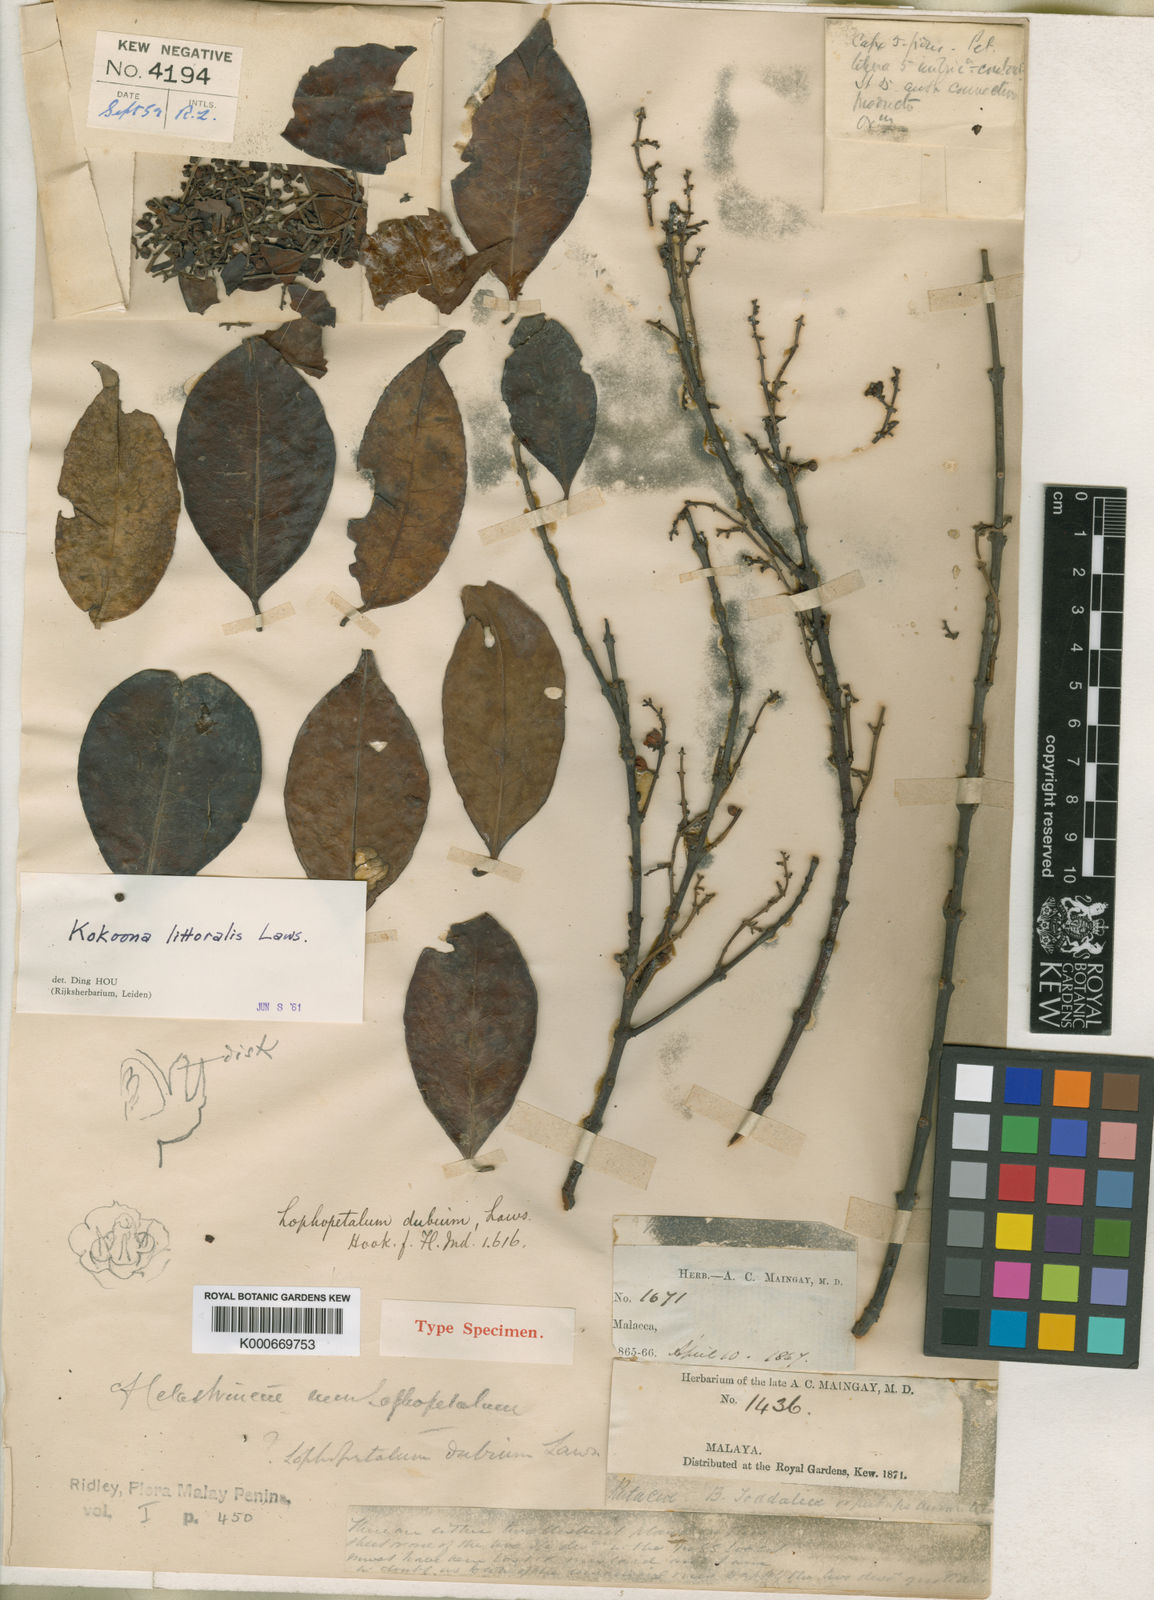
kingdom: Plantae
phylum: Tracheophyta
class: Magnoliopsida
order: Celastrales
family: Celastraceae
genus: Kokoona
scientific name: Kokoona littoralis
